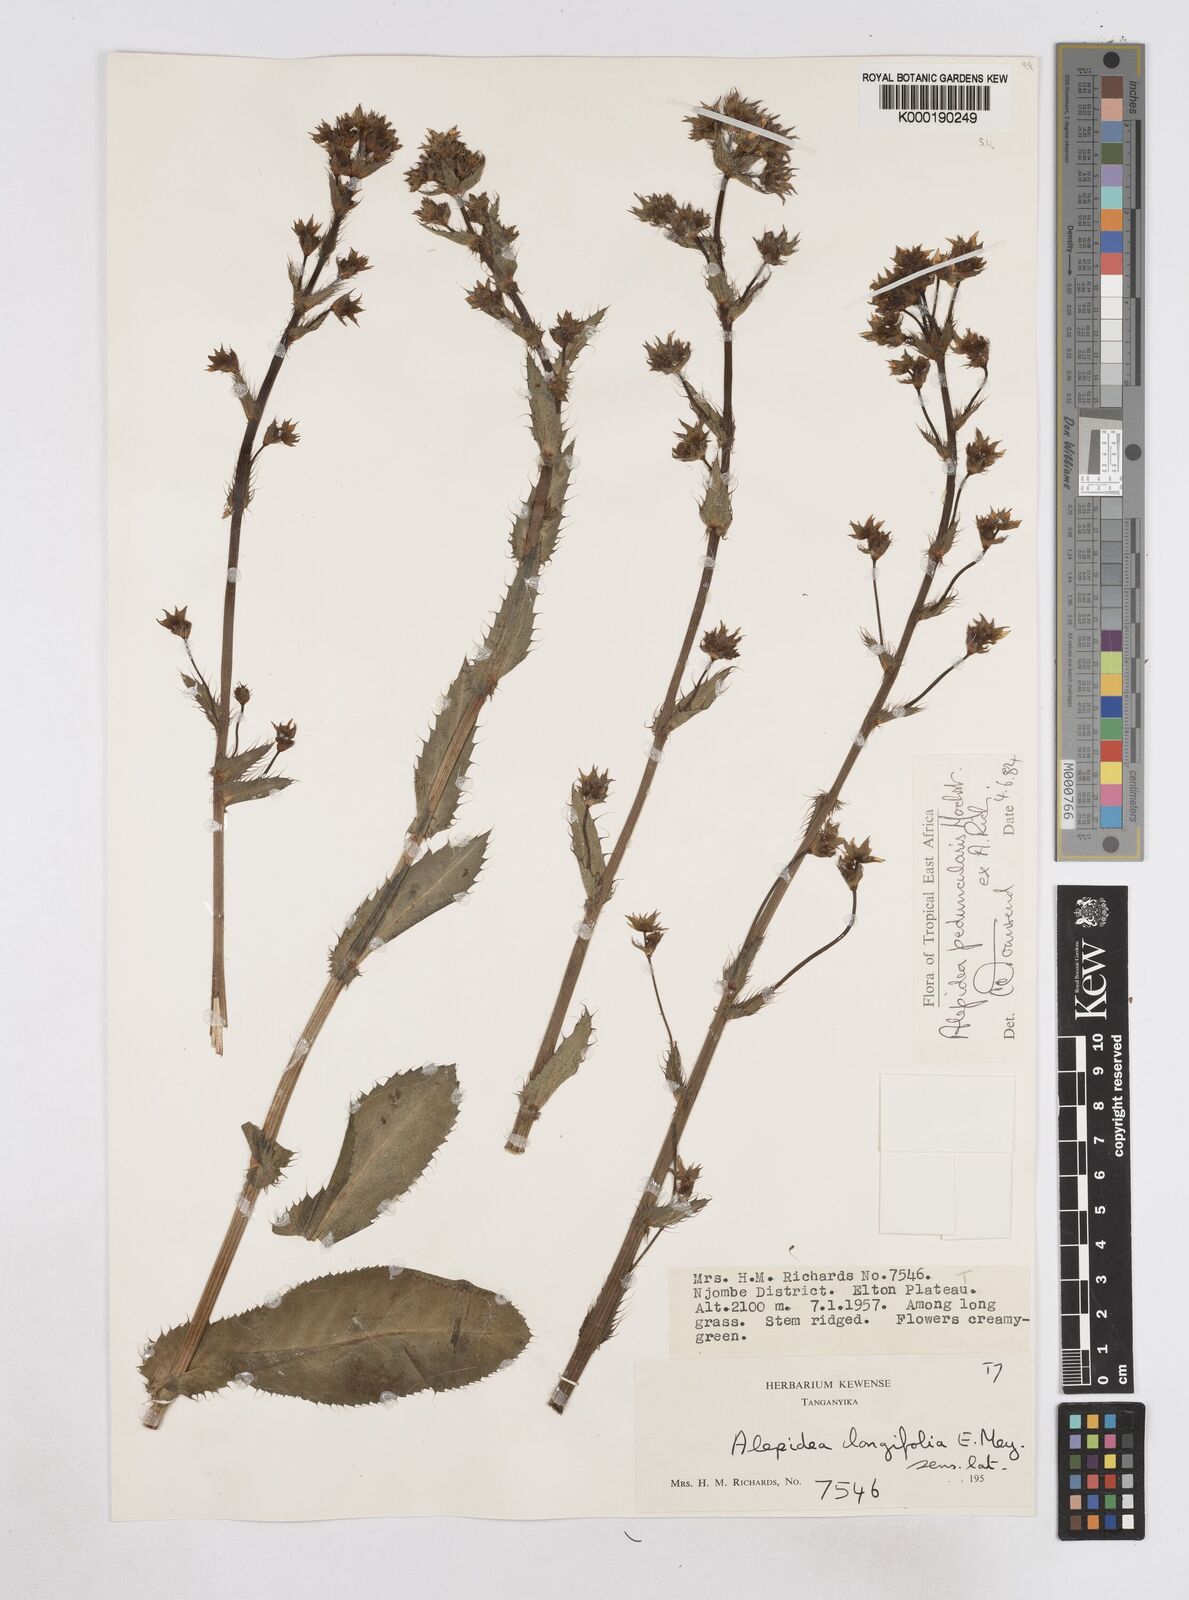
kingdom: Plantae
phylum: Tracheophyta
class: Magnoliopsida
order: Apiales
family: Apiaceae
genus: Alepidea
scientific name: Alepidea peduncularis
